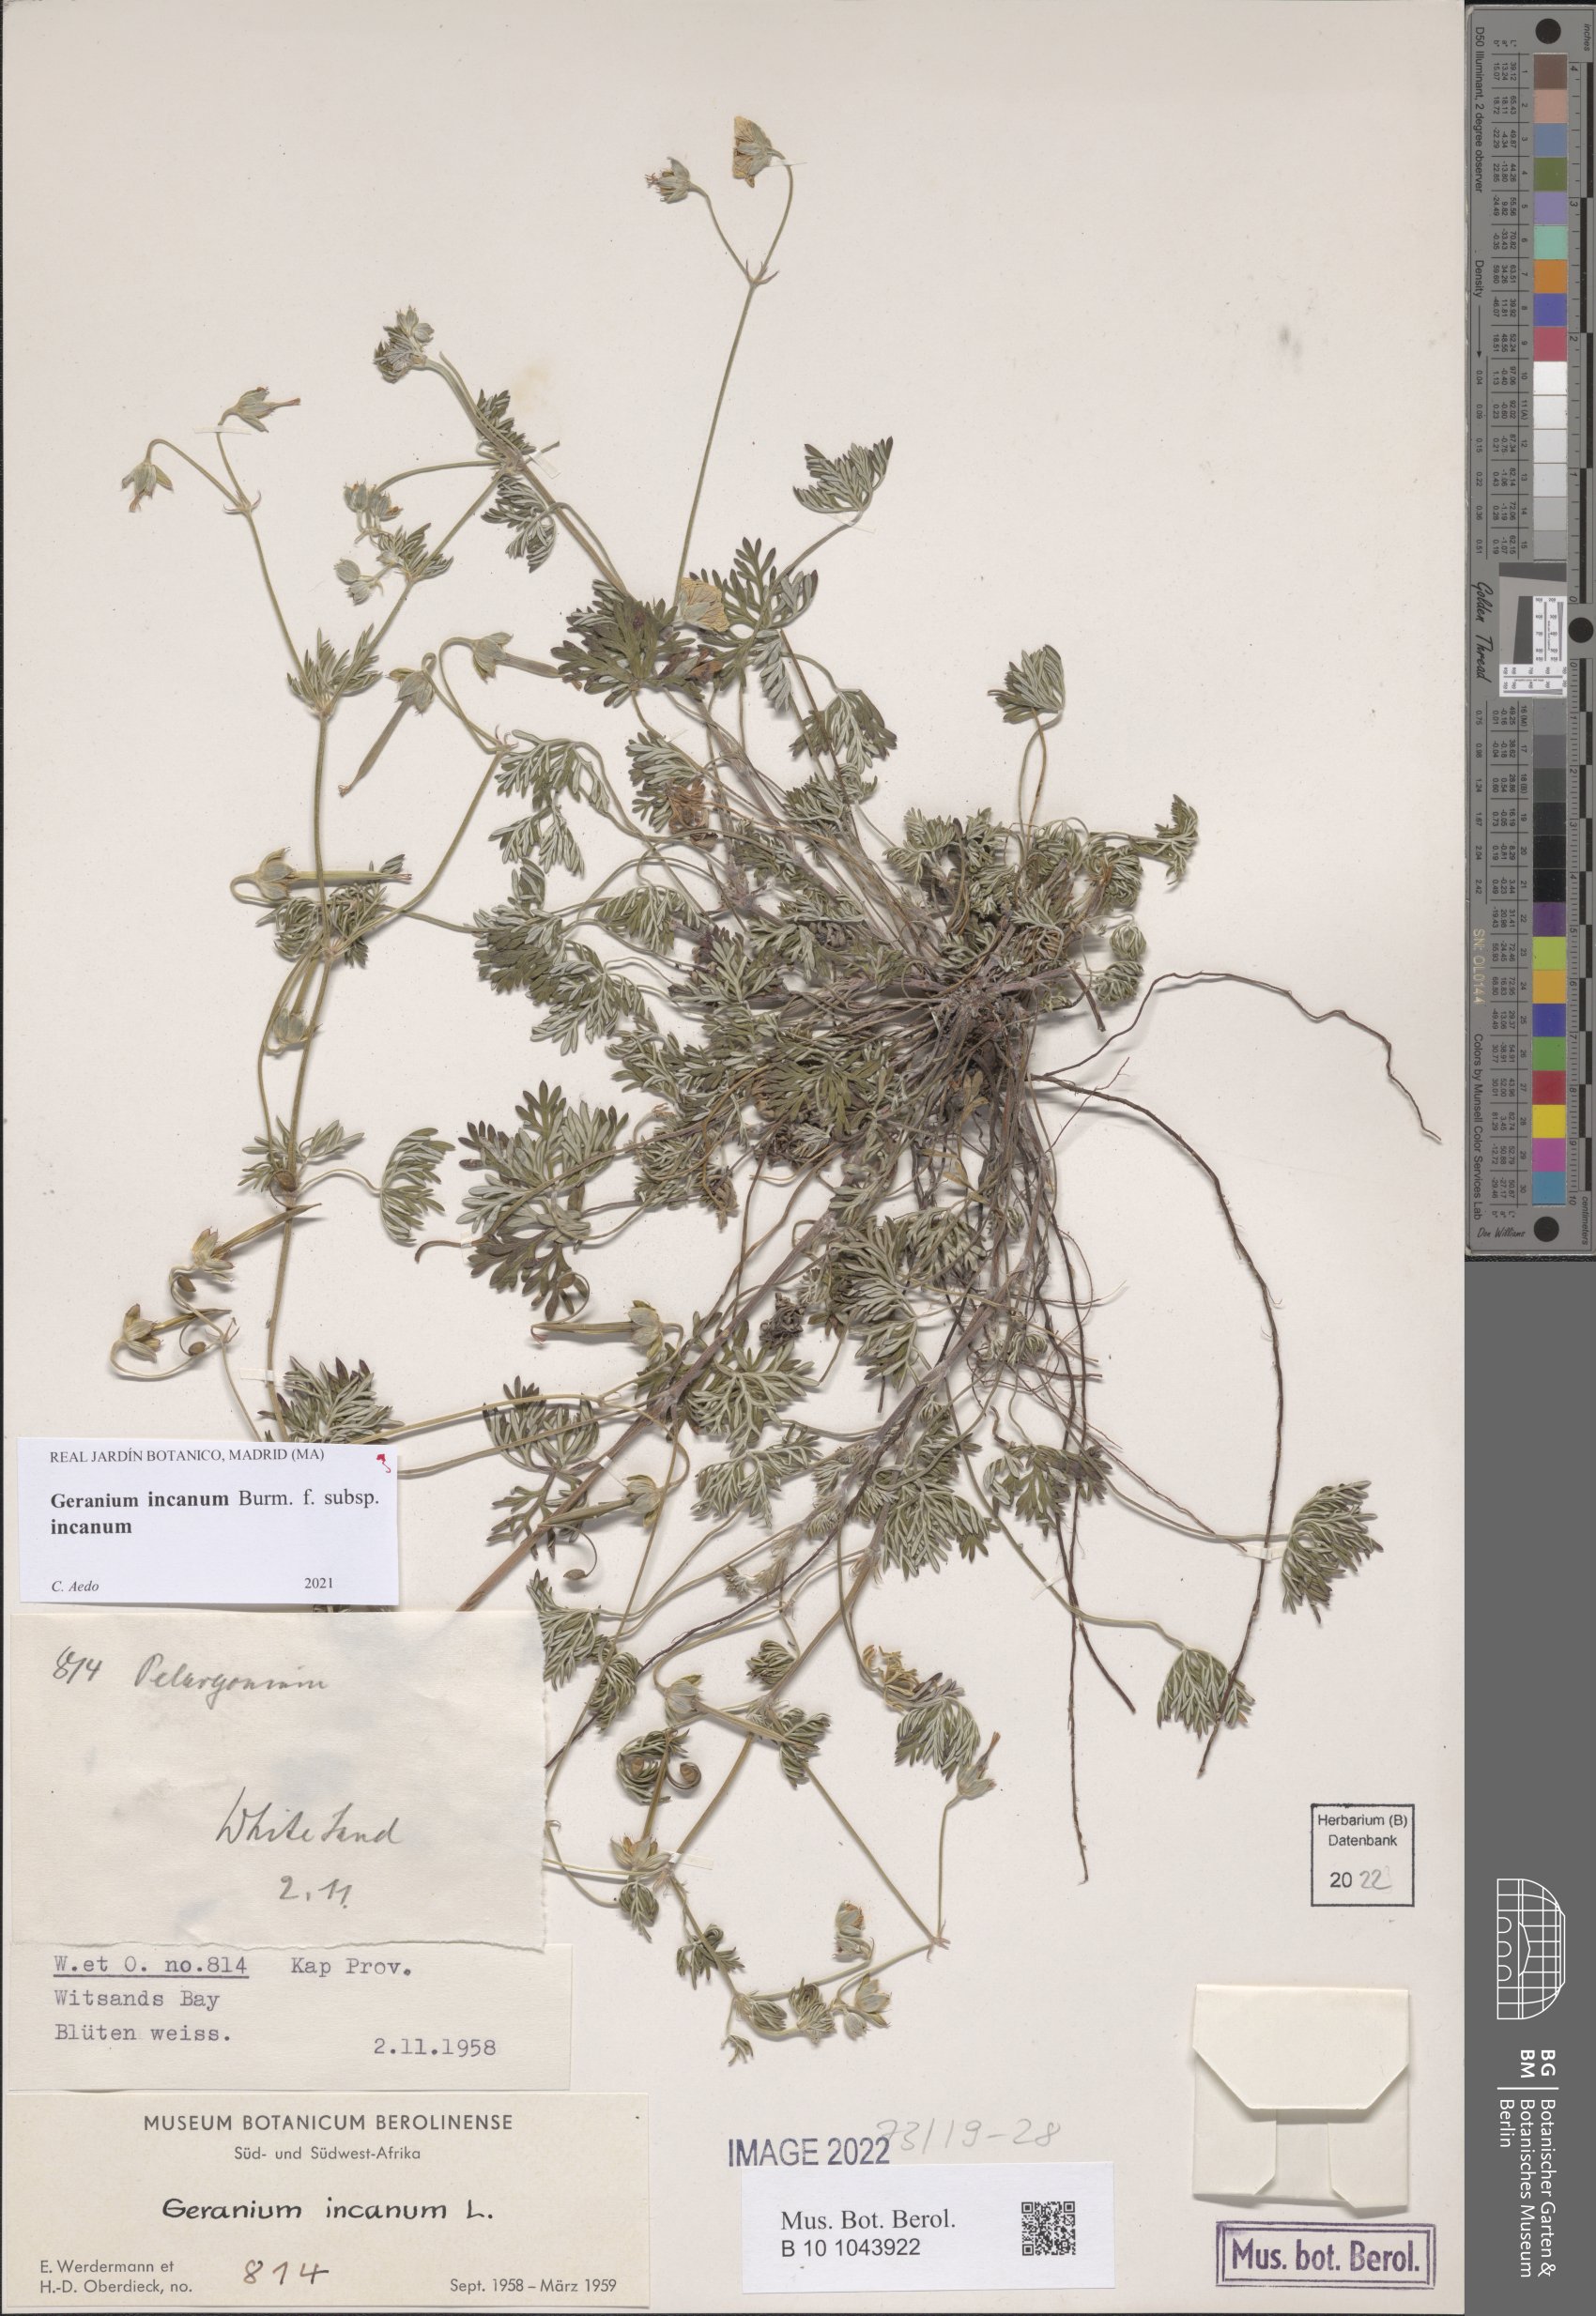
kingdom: Plantae
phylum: Tracheophyta
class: Magnoliopsida
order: Geraniales
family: Geraniaceae
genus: Geranium
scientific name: Geranium incanum
